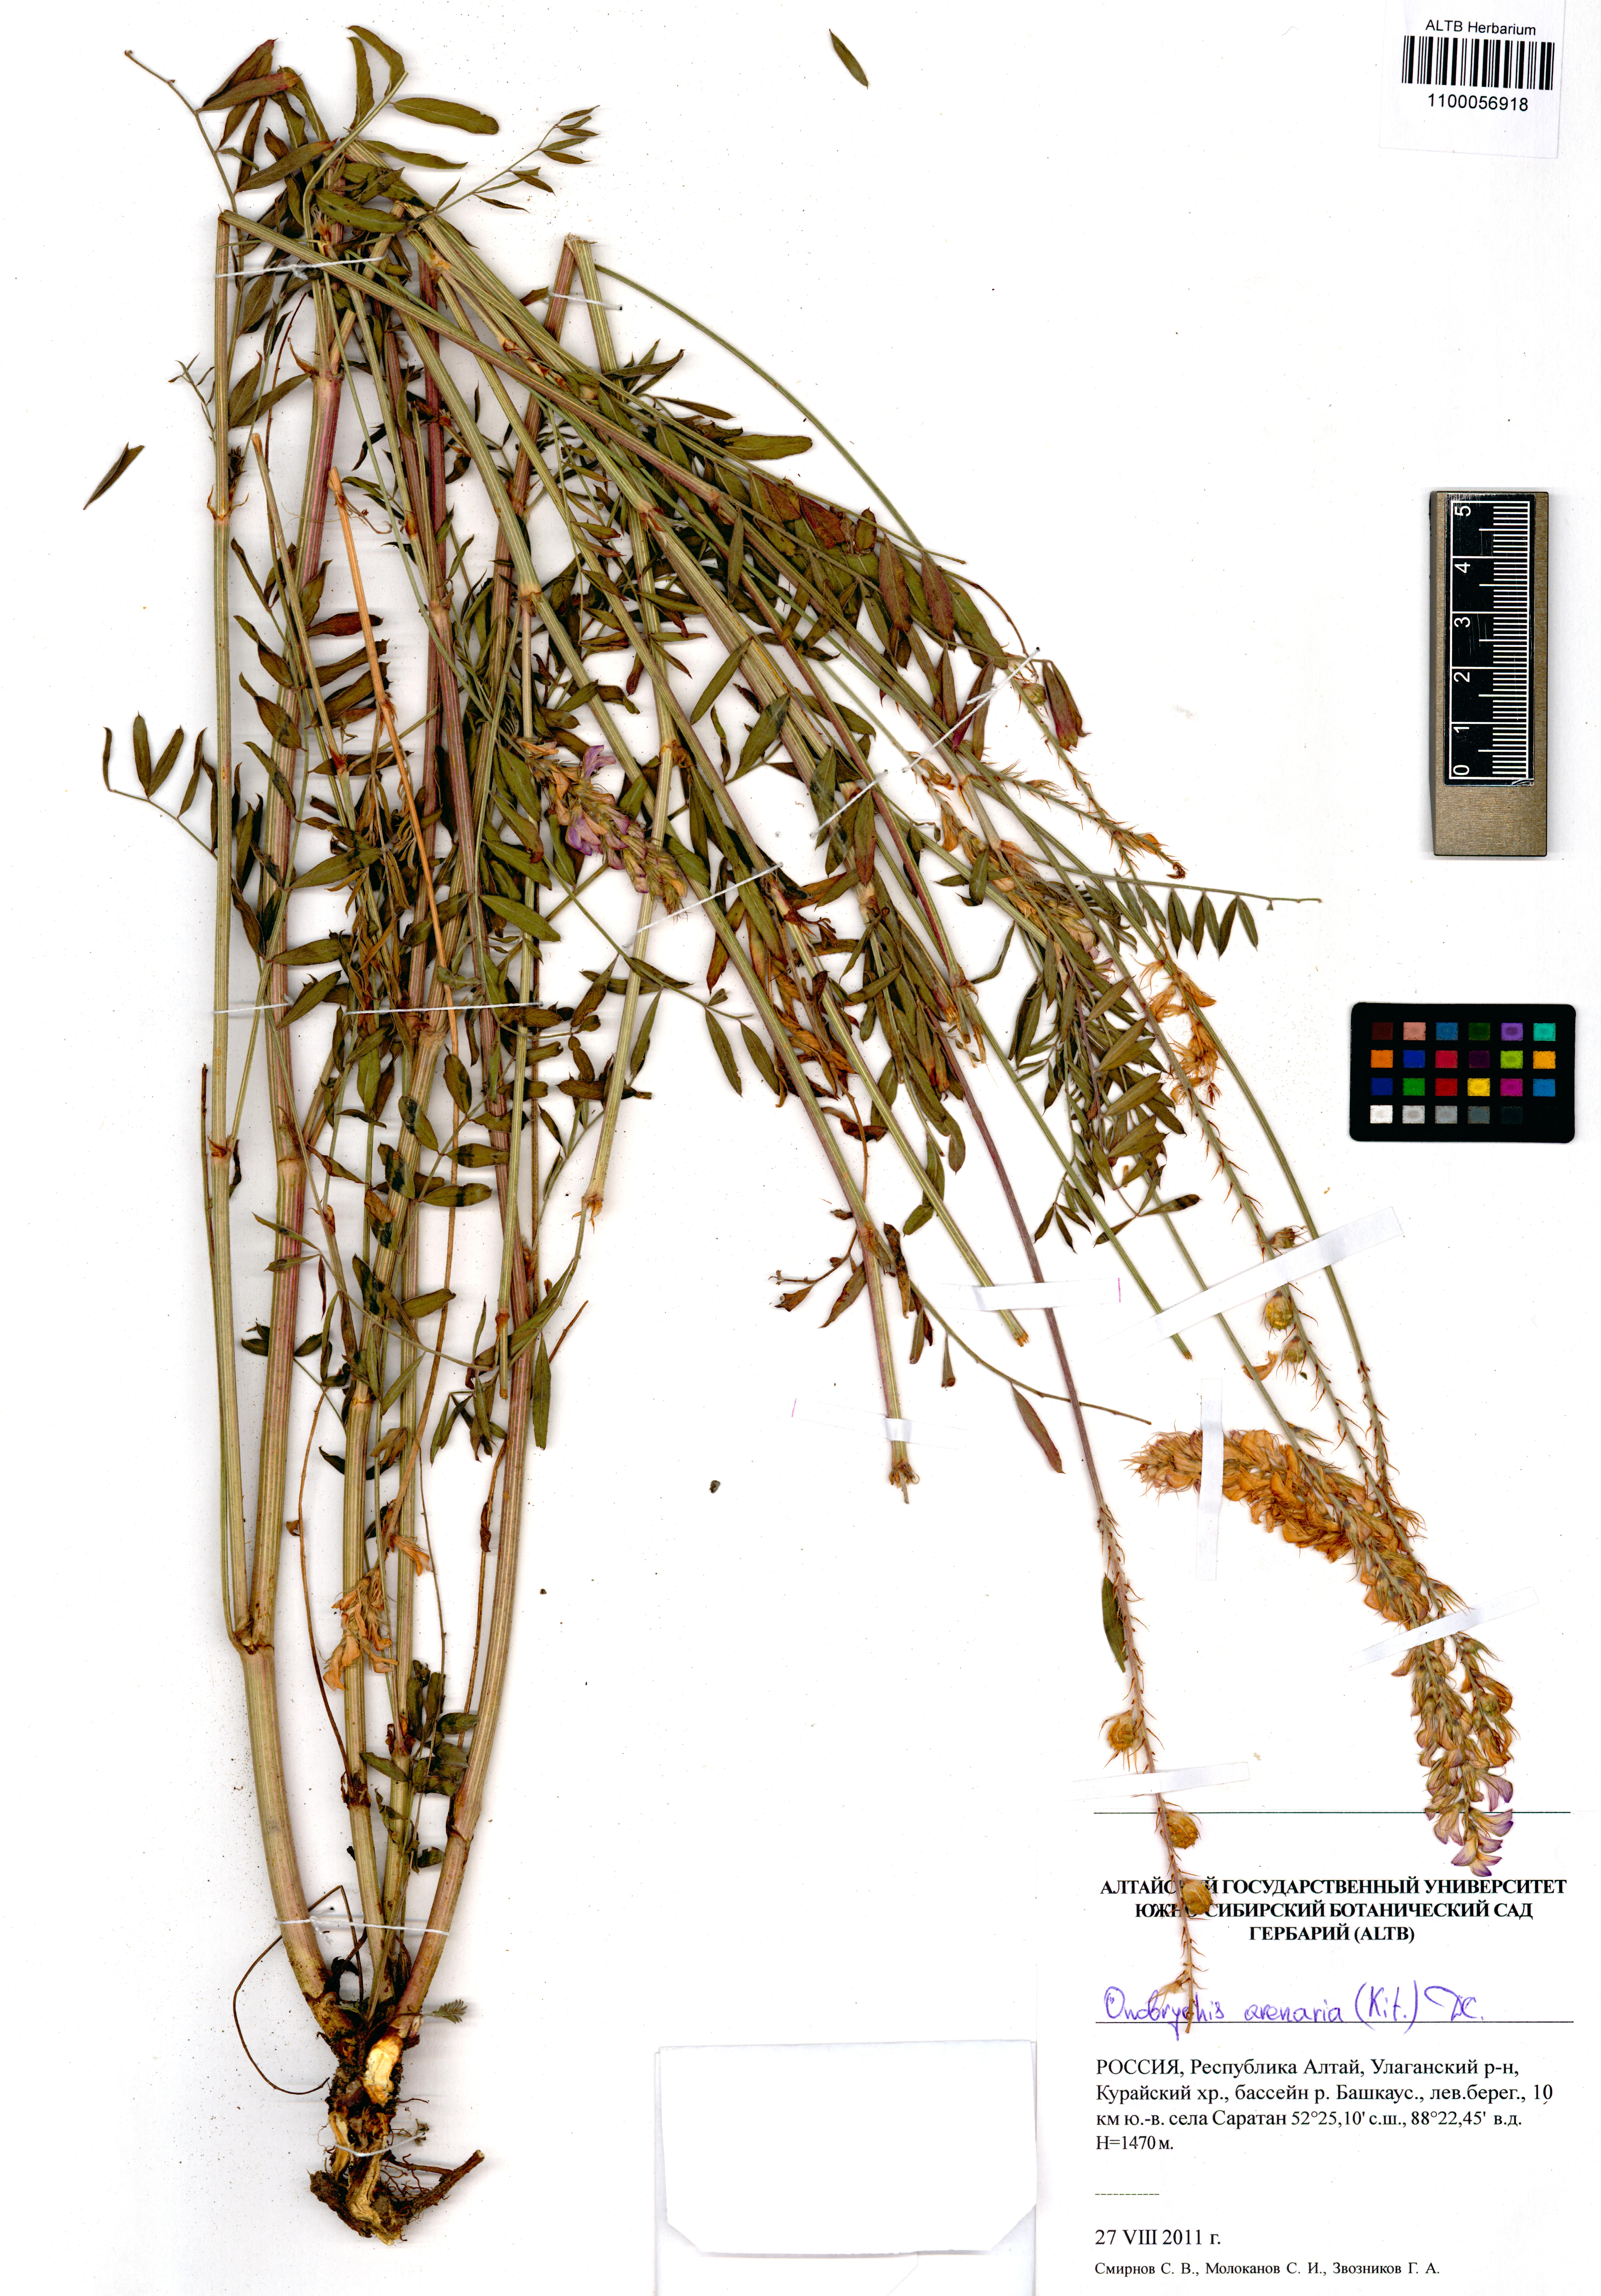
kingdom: Plantae
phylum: Tracheophyta
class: Magnoliopsida
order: Fabales
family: Fabaceae
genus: Onobrychis
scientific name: Onobrychis arenaria
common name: Sand esparcet
